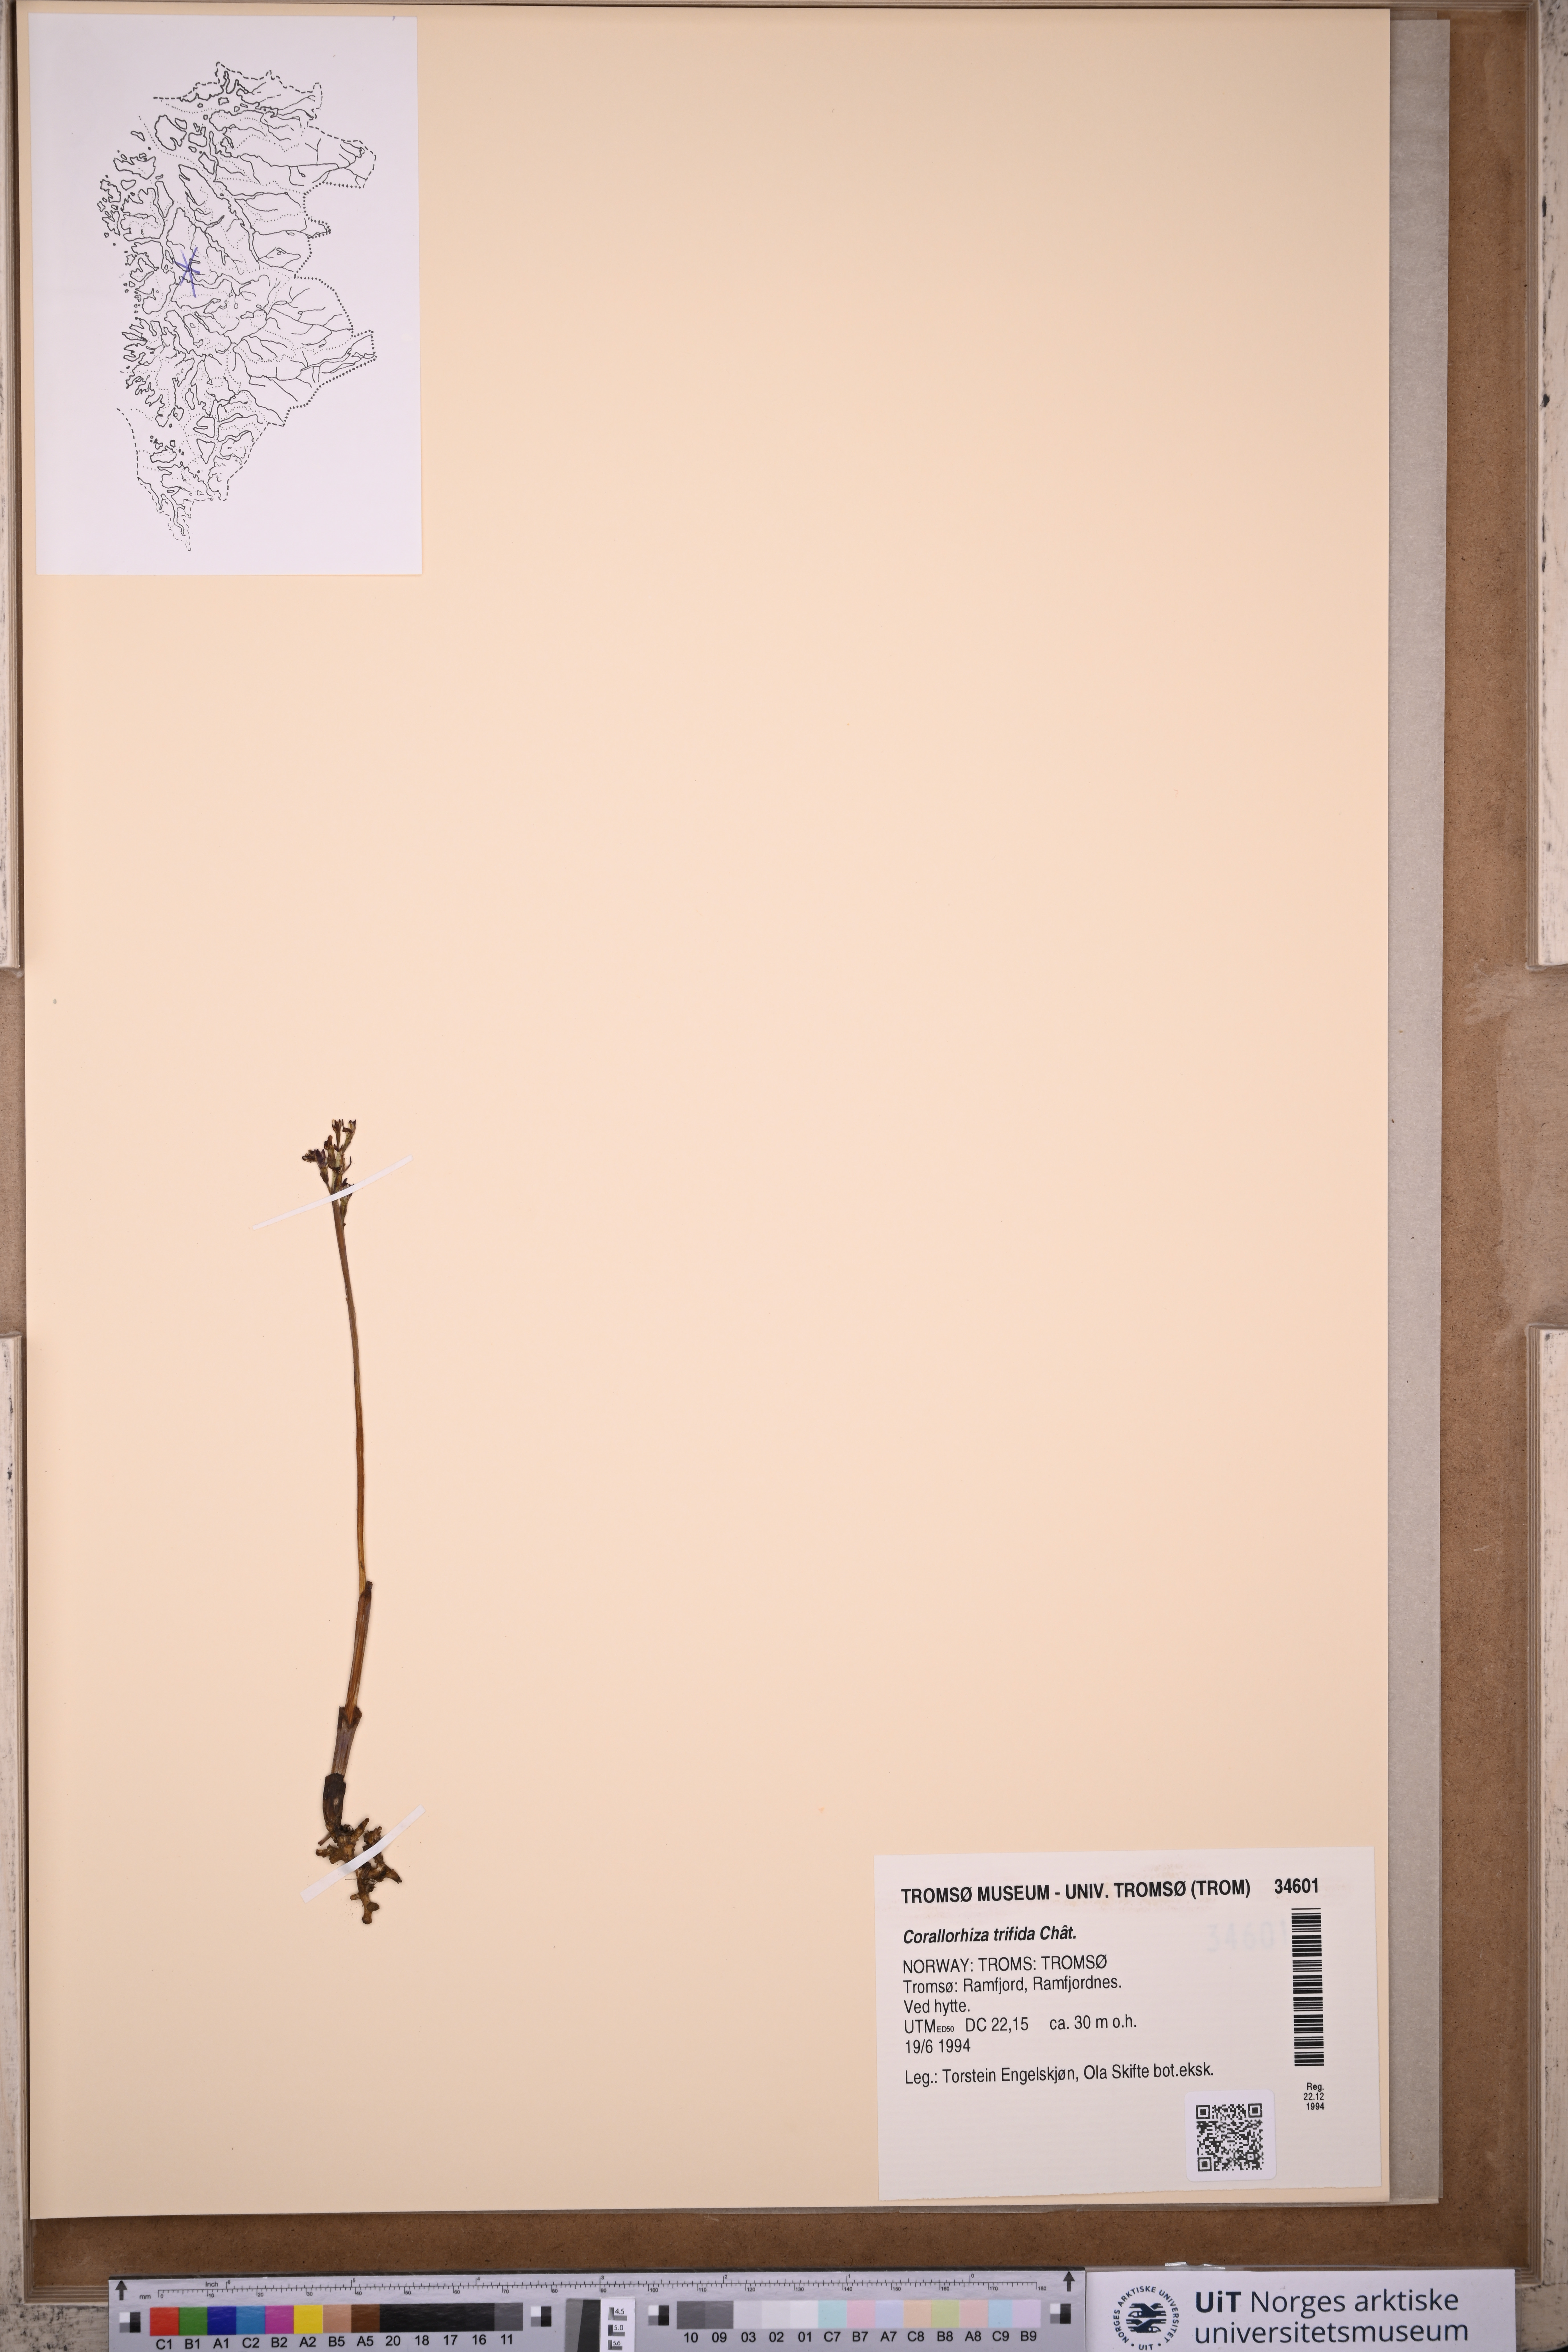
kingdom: Plantae
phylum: Tracheophyta
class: Liliopsida
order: Asparagales
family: Orchidaceae
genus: Corallorhiza
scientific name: Corallorhiza trifida
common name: Yellow coralroot
